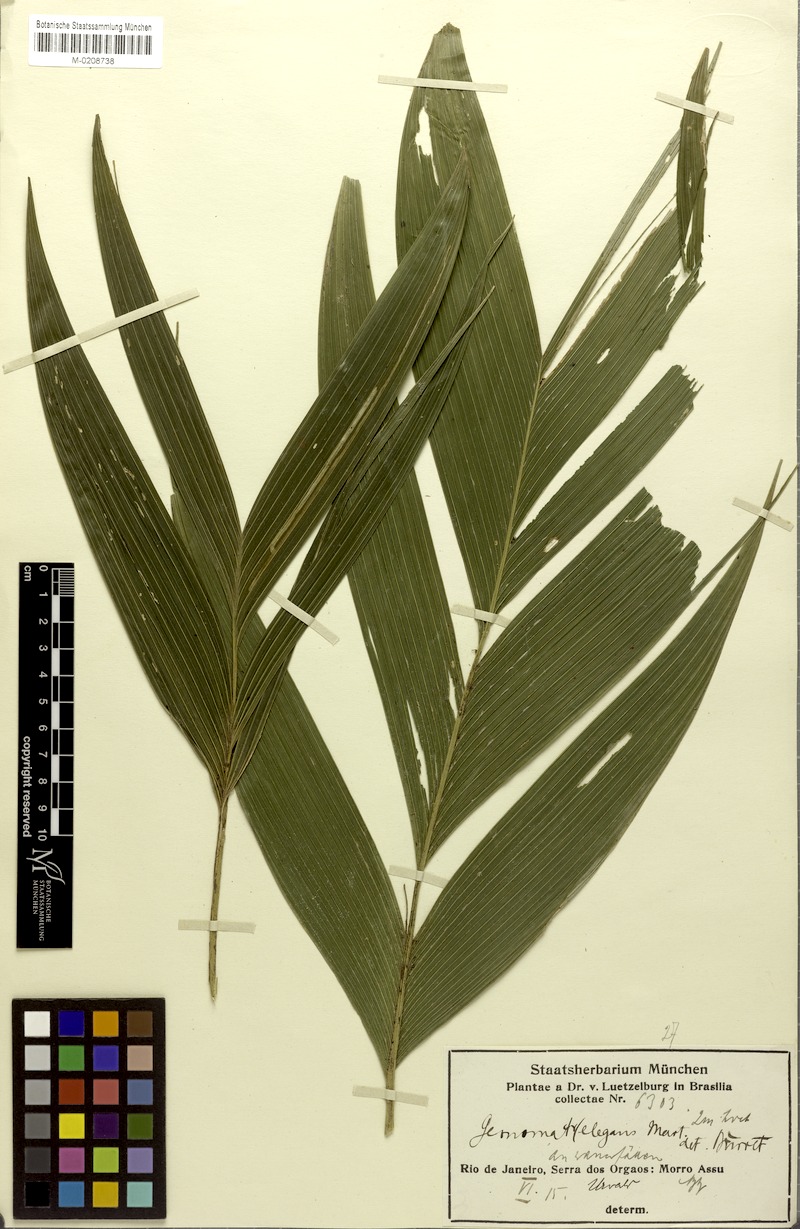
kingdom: Plantae
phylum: Tracheophyta
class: Liliopsida
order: Arecales
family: Arecaceae
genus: Geonoma
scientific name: Geonoma elegans
